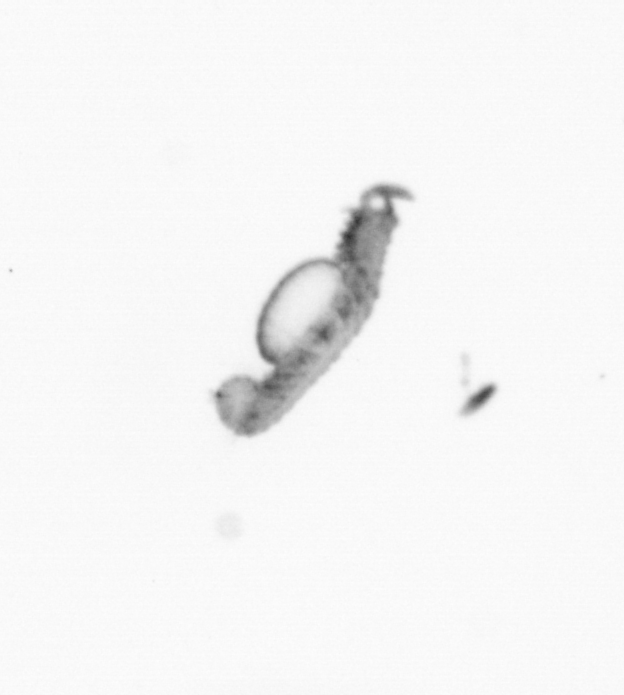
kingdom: Animalia
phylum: Annelida
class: Polychaeta
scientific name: Polychaeta
